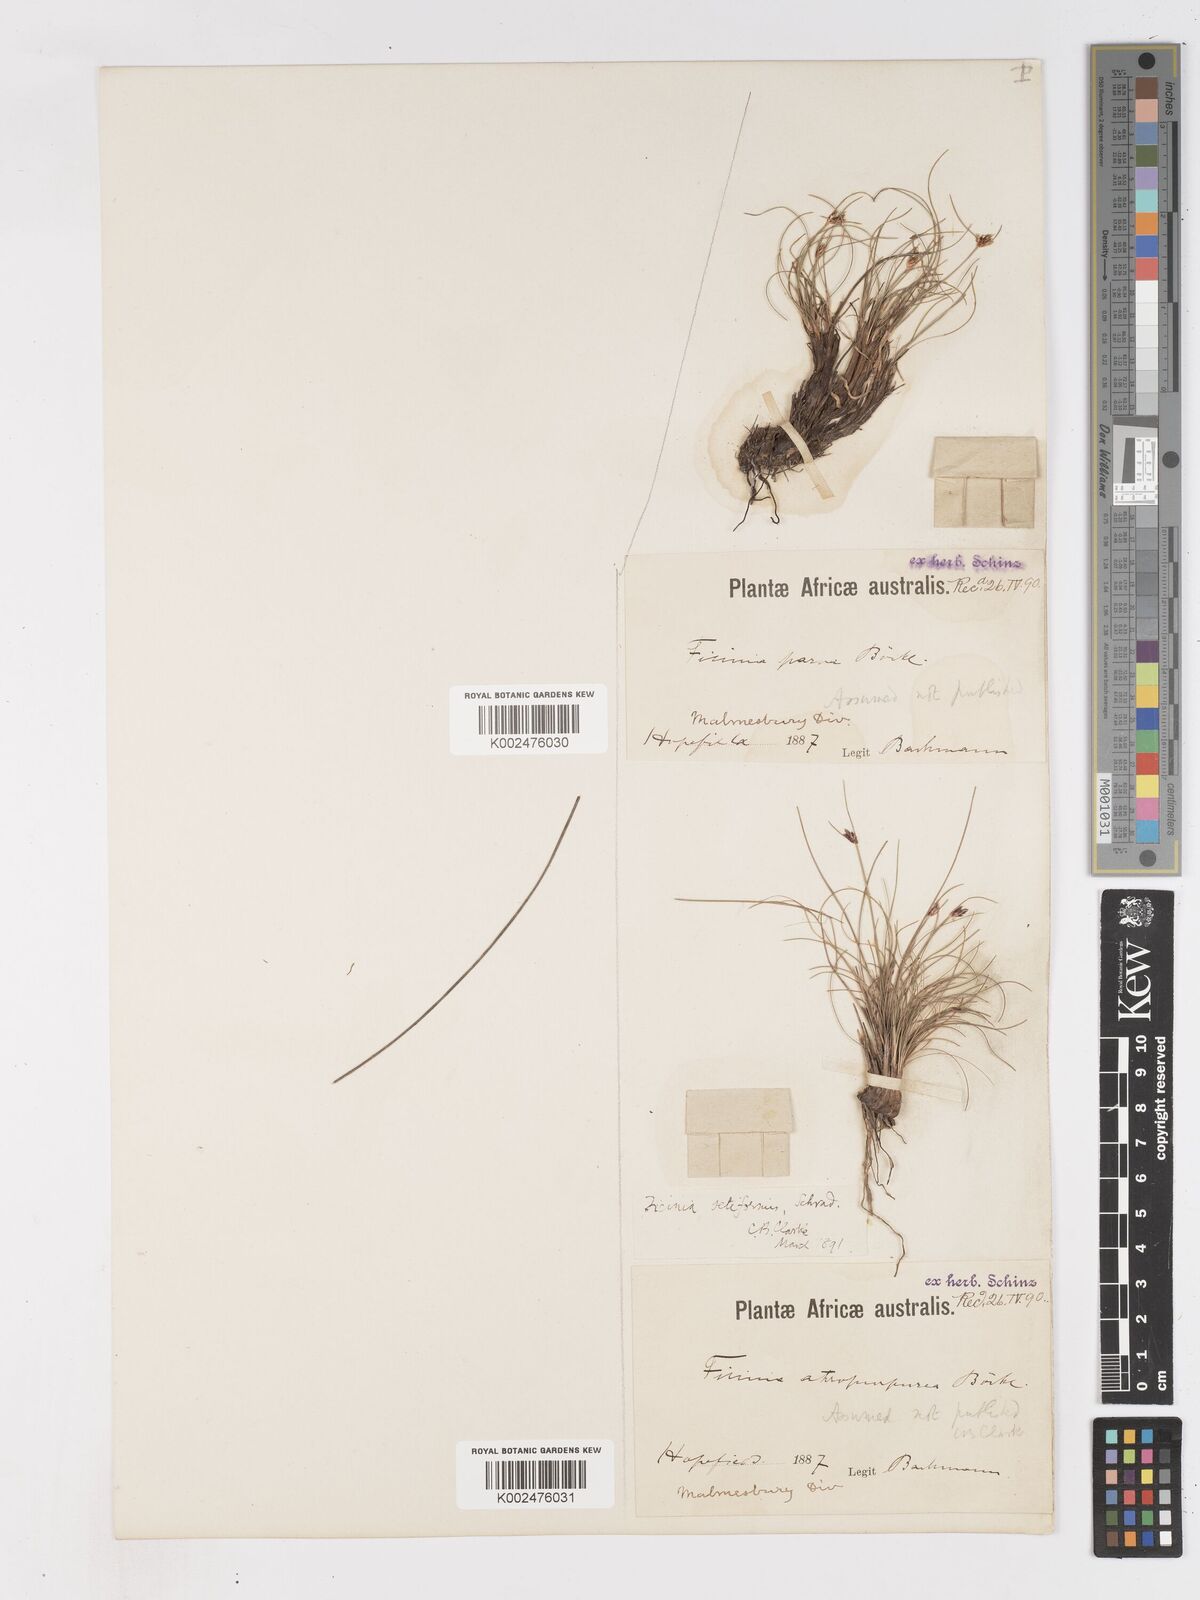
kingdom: Plantae
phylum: Tracheophyta
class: Liliopsida
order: Poales
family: Cyperaceae
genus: Ficinia
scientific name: Ficinia indica
